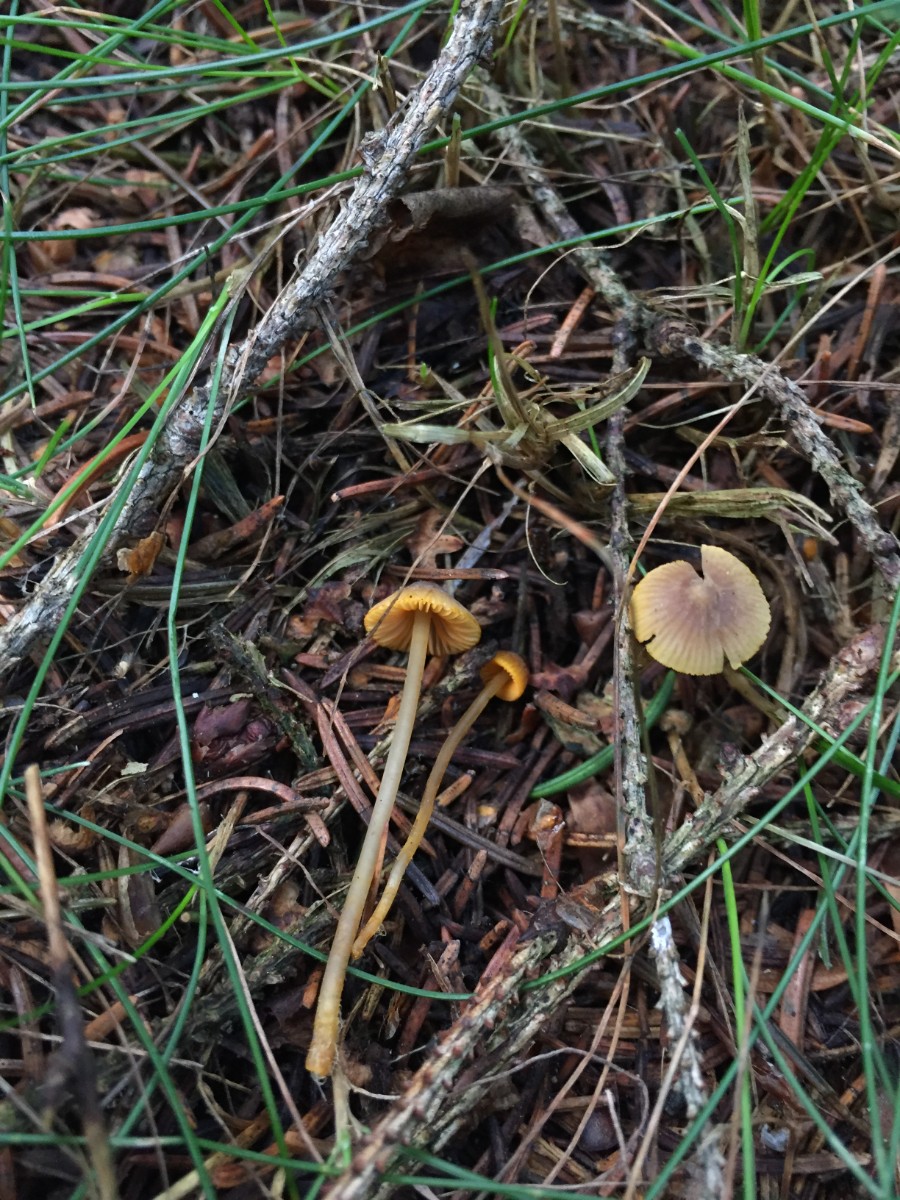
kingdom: Fungi
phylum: Basidiomycota
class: Agaricomycetes
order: Agaricales
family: Mycenaceae
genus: Mycena
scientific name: Mycena aurantiomarginata
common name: orangeægget huesvamp
